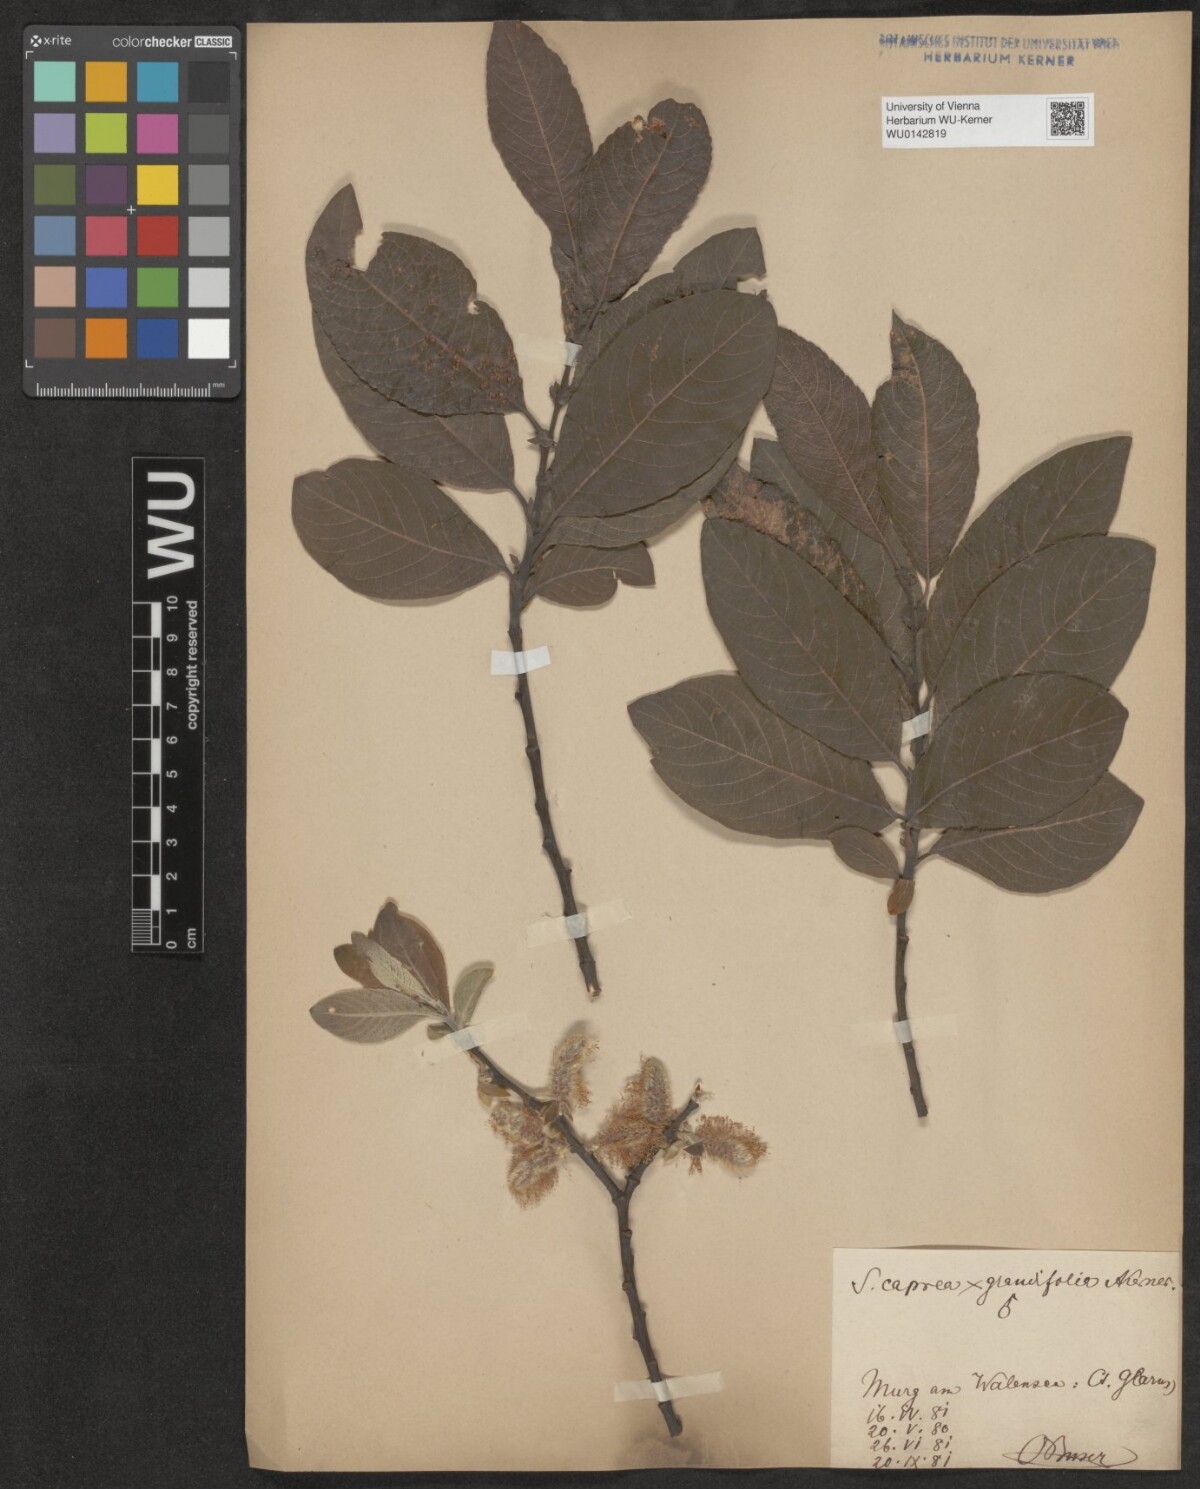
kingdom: Plantae
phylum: Tracheophyta
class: Magnoliopsida
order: Malpighiales
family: Salicaceae
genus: Salix
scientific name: Salix macrophylla
